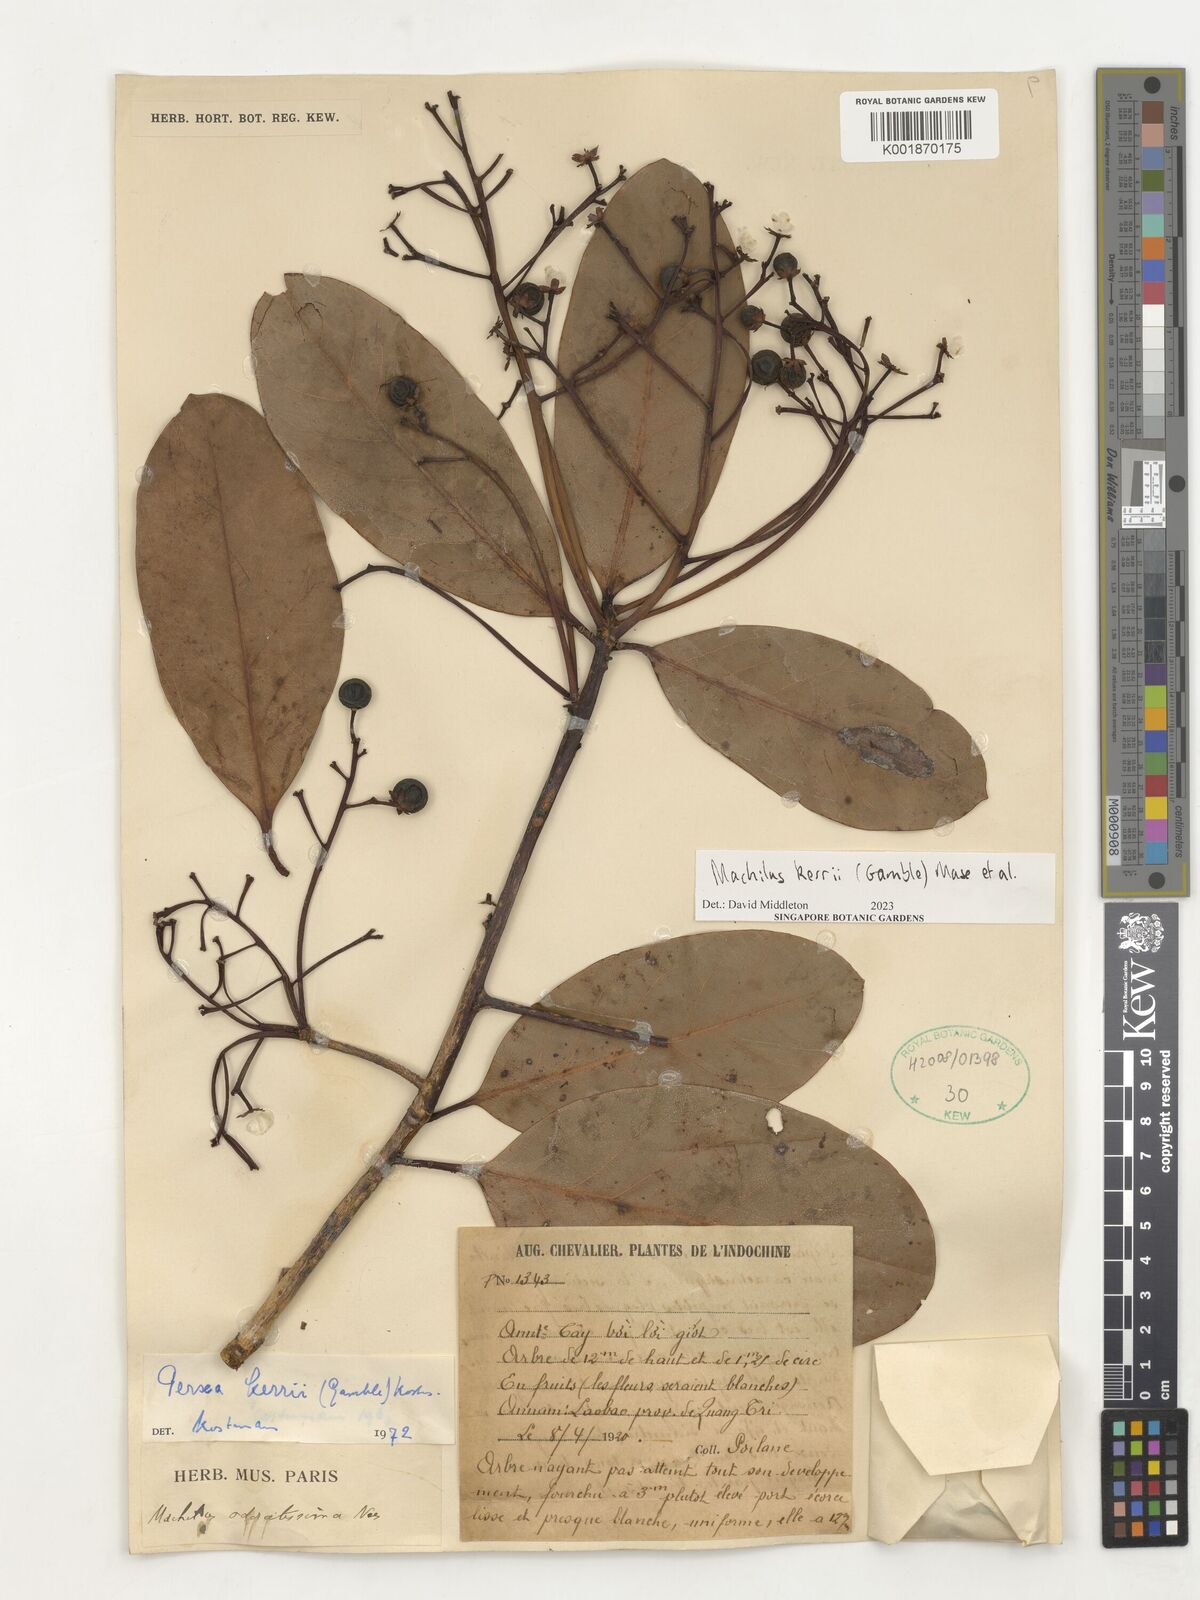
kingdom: Plantae
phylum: Tracheophyta
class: Magnoliopsida
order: Laurales
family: Lauraceae
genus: Machilus
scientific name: Machilus
